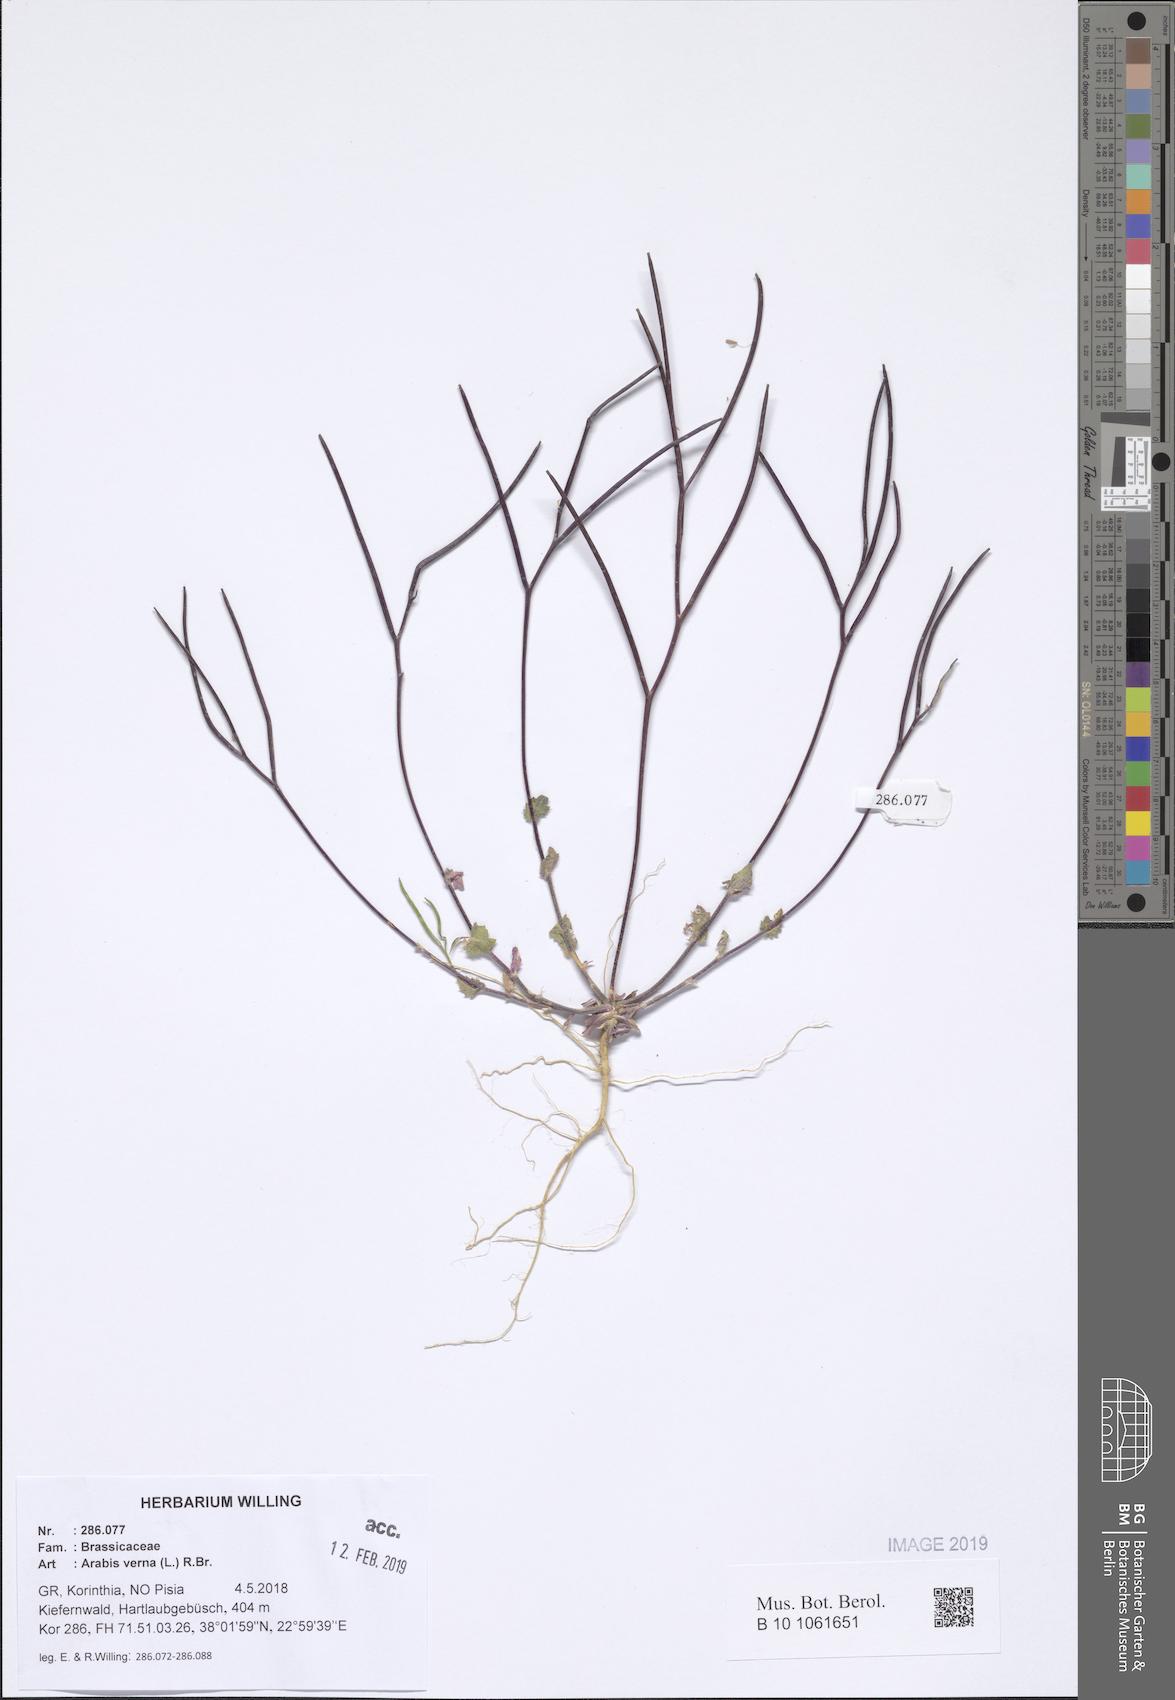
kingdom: Plantae
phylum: Tracheophyta
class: Magnoliopsida
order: Brassicales
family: Brassicaceae
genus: Arabis
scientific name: Arabis verna
